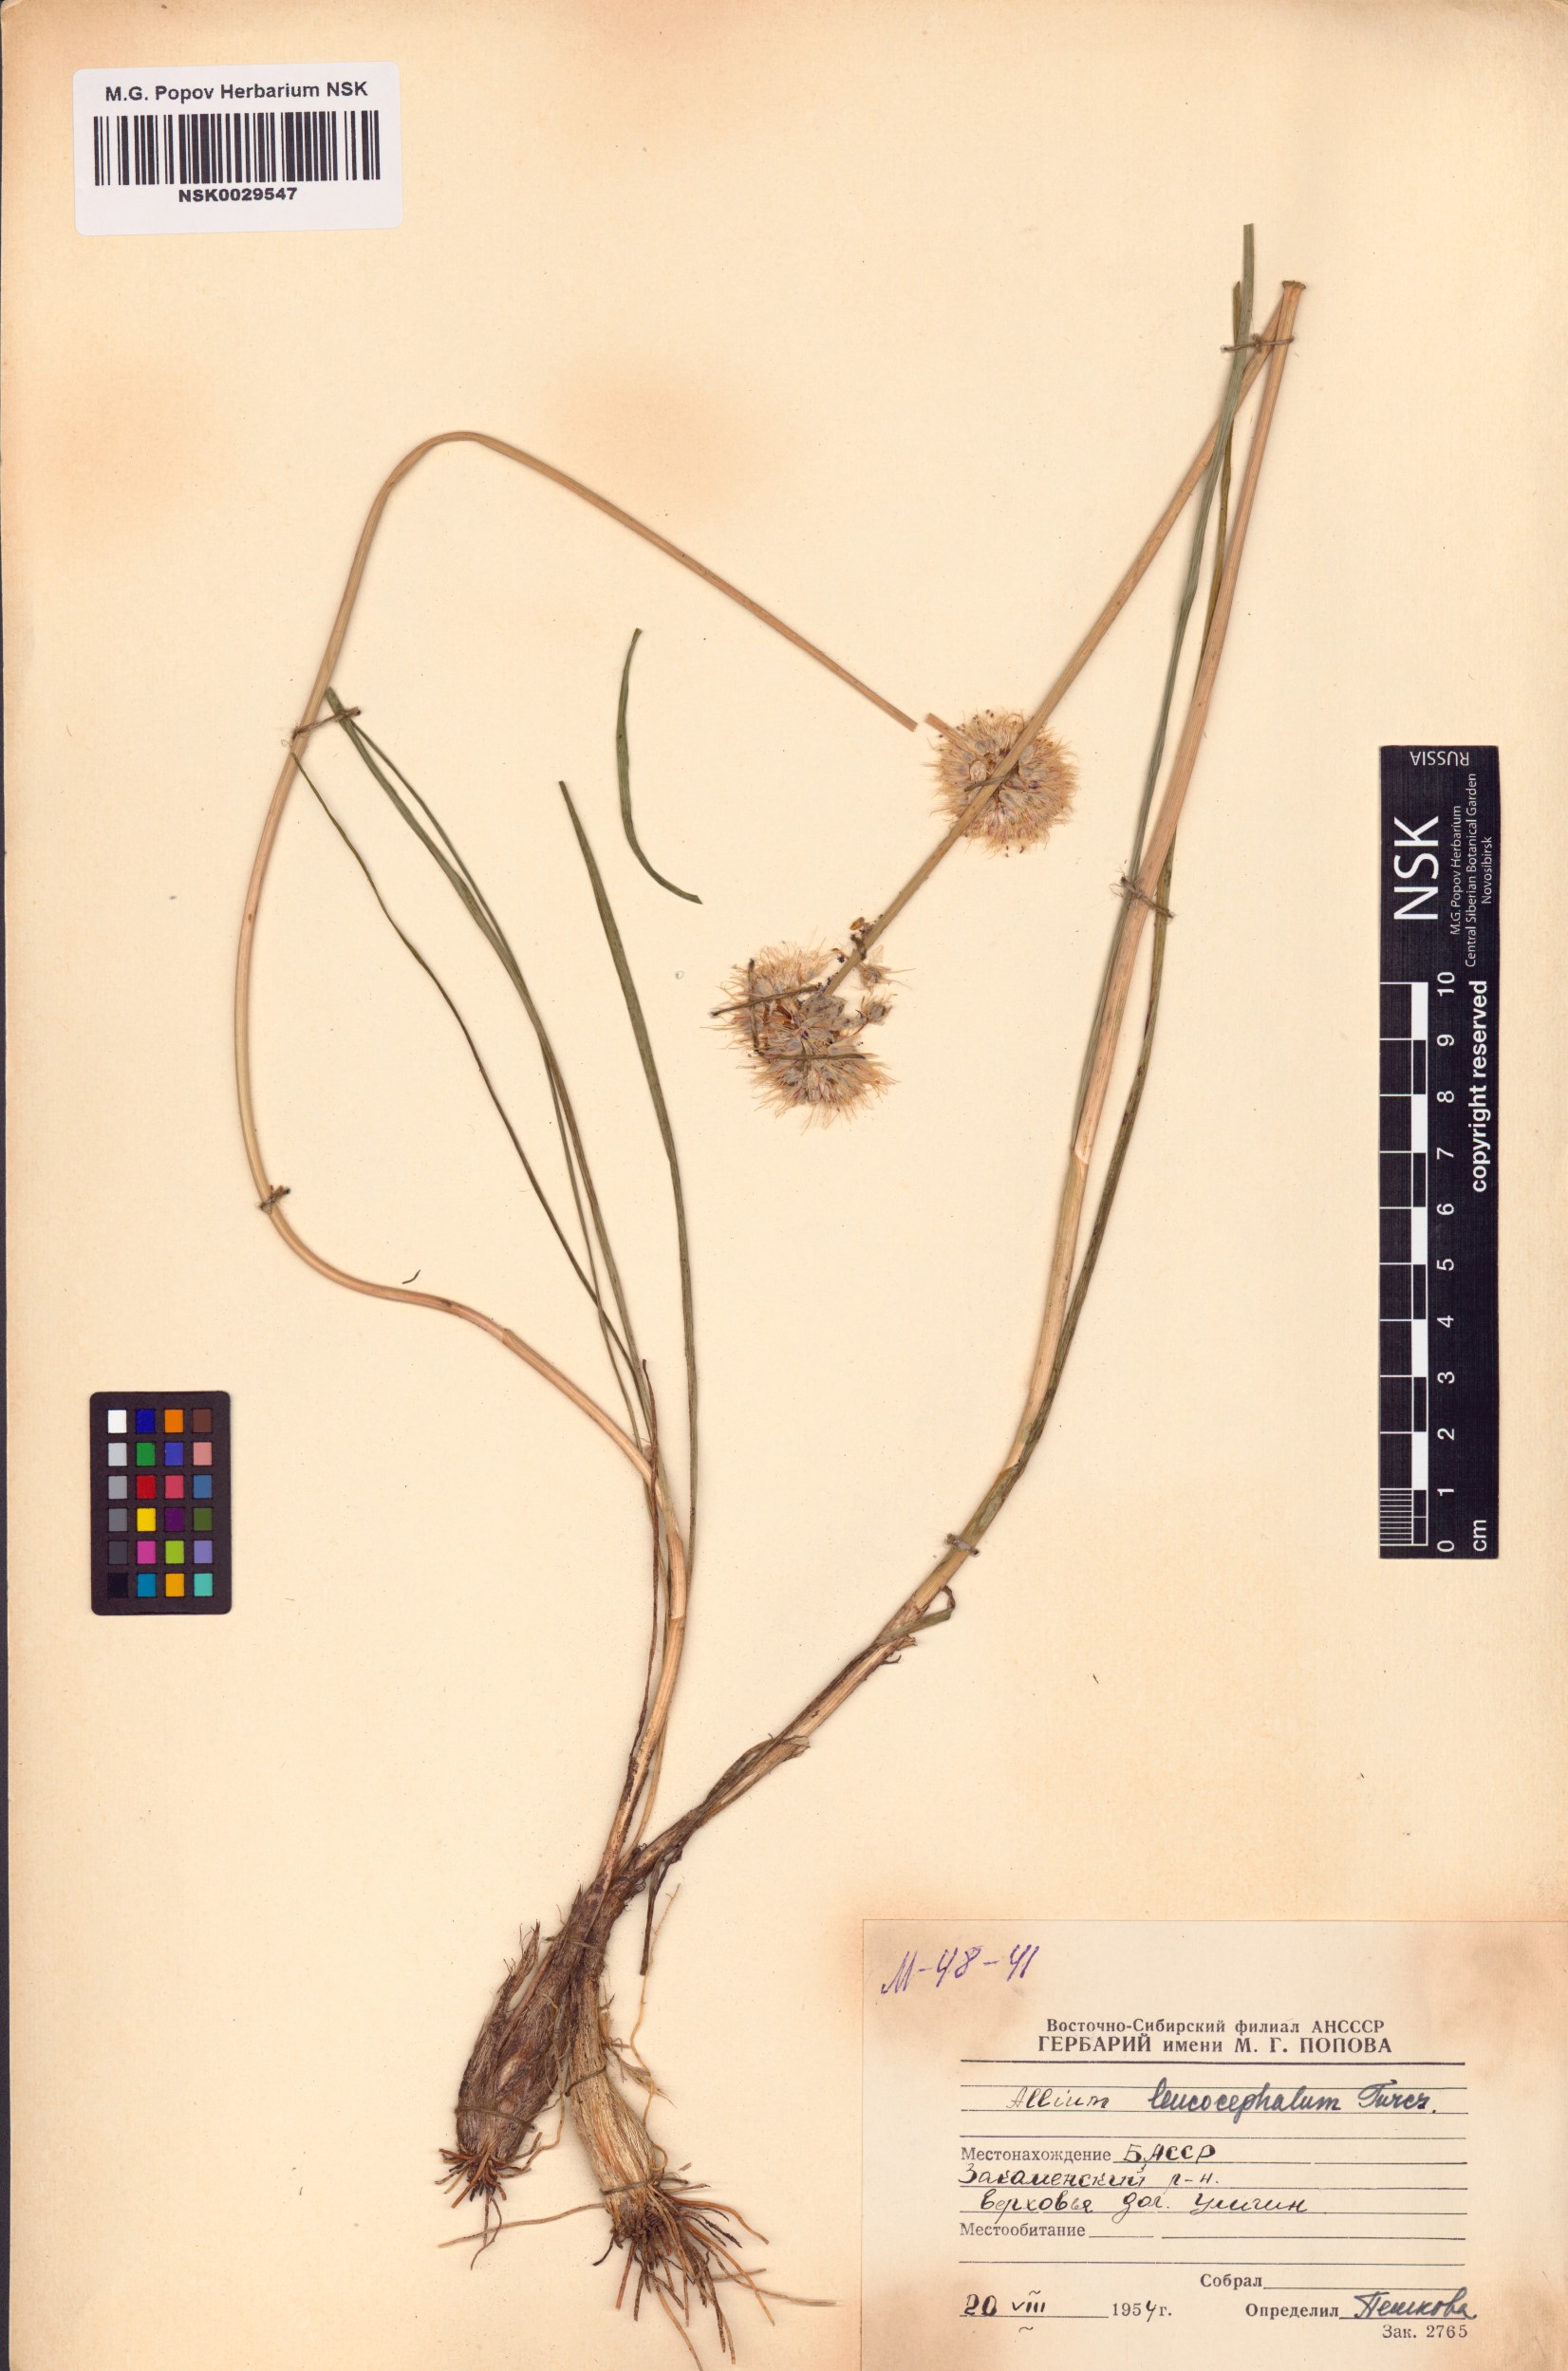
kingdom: Plantae
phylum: Tracheophyta
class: Liliopsida
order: Asparagales
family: Amaryllidaceae
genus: Allium
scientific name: Allium leucocephalum
